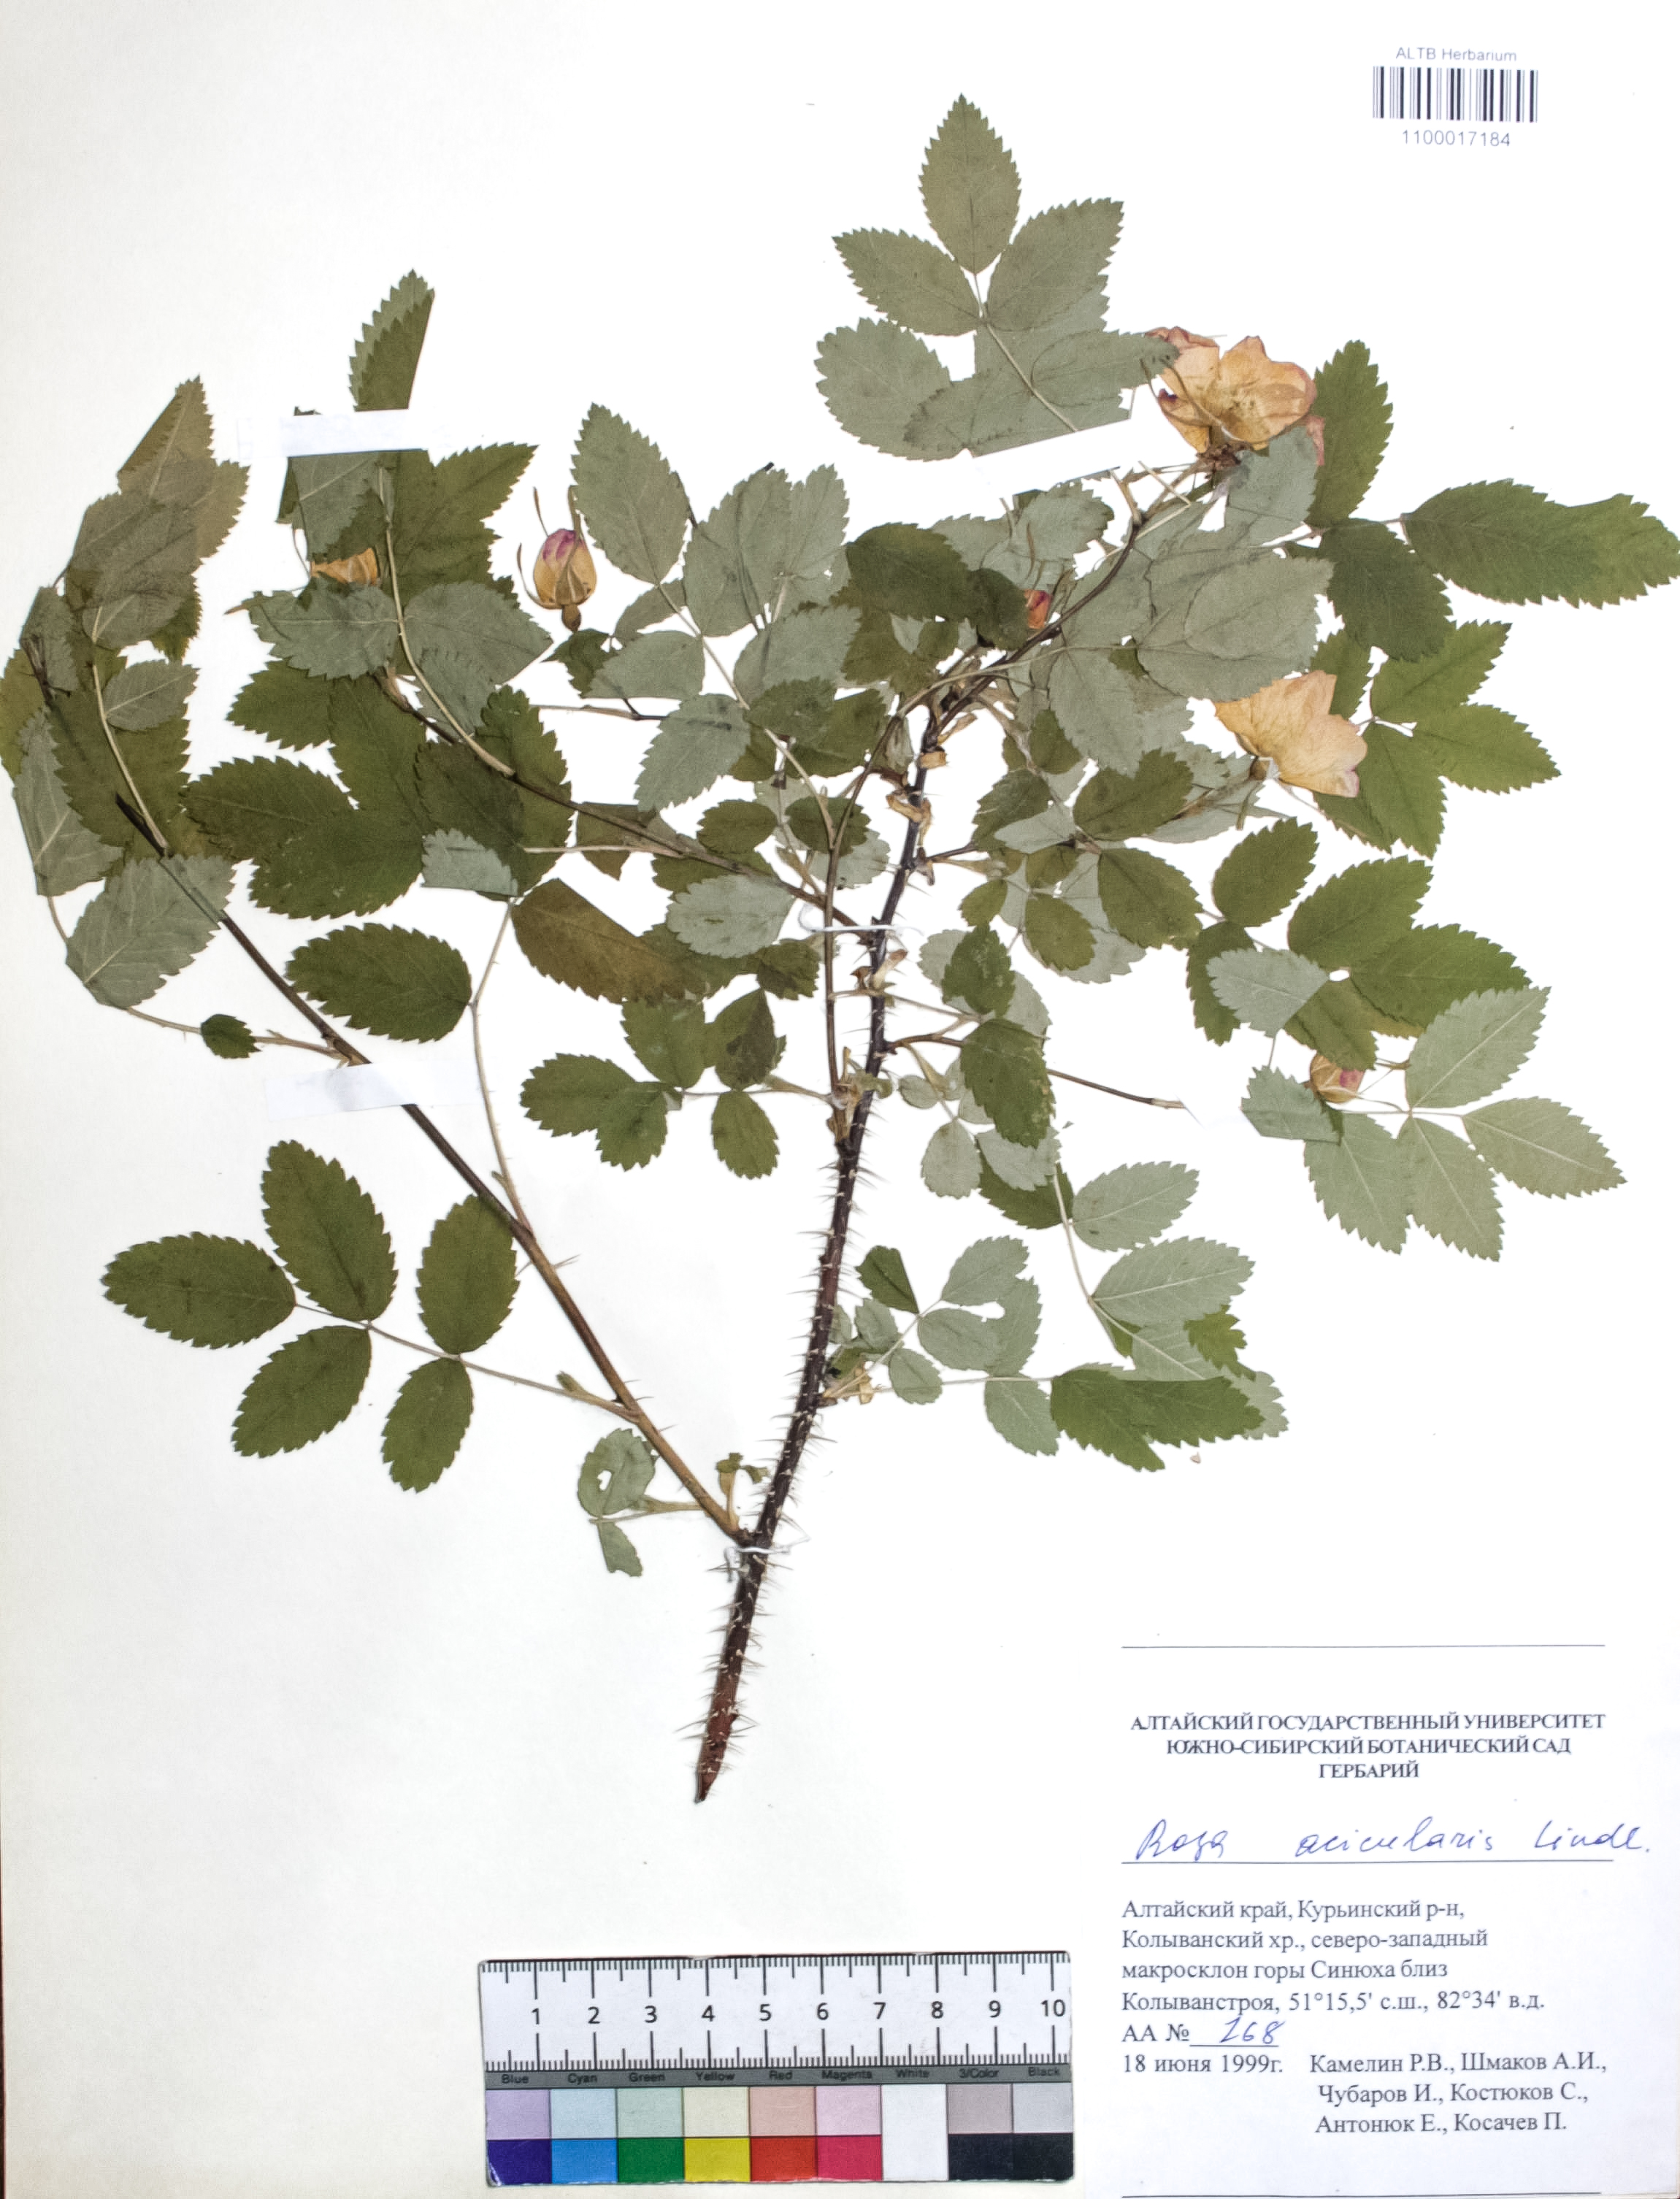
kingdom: Plantae
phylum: Tracheophyta
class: Magnoliopsida
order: Rosales
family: Rosaceae
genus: Rosa
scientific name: Rosa acicularis
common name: Prickly rose
